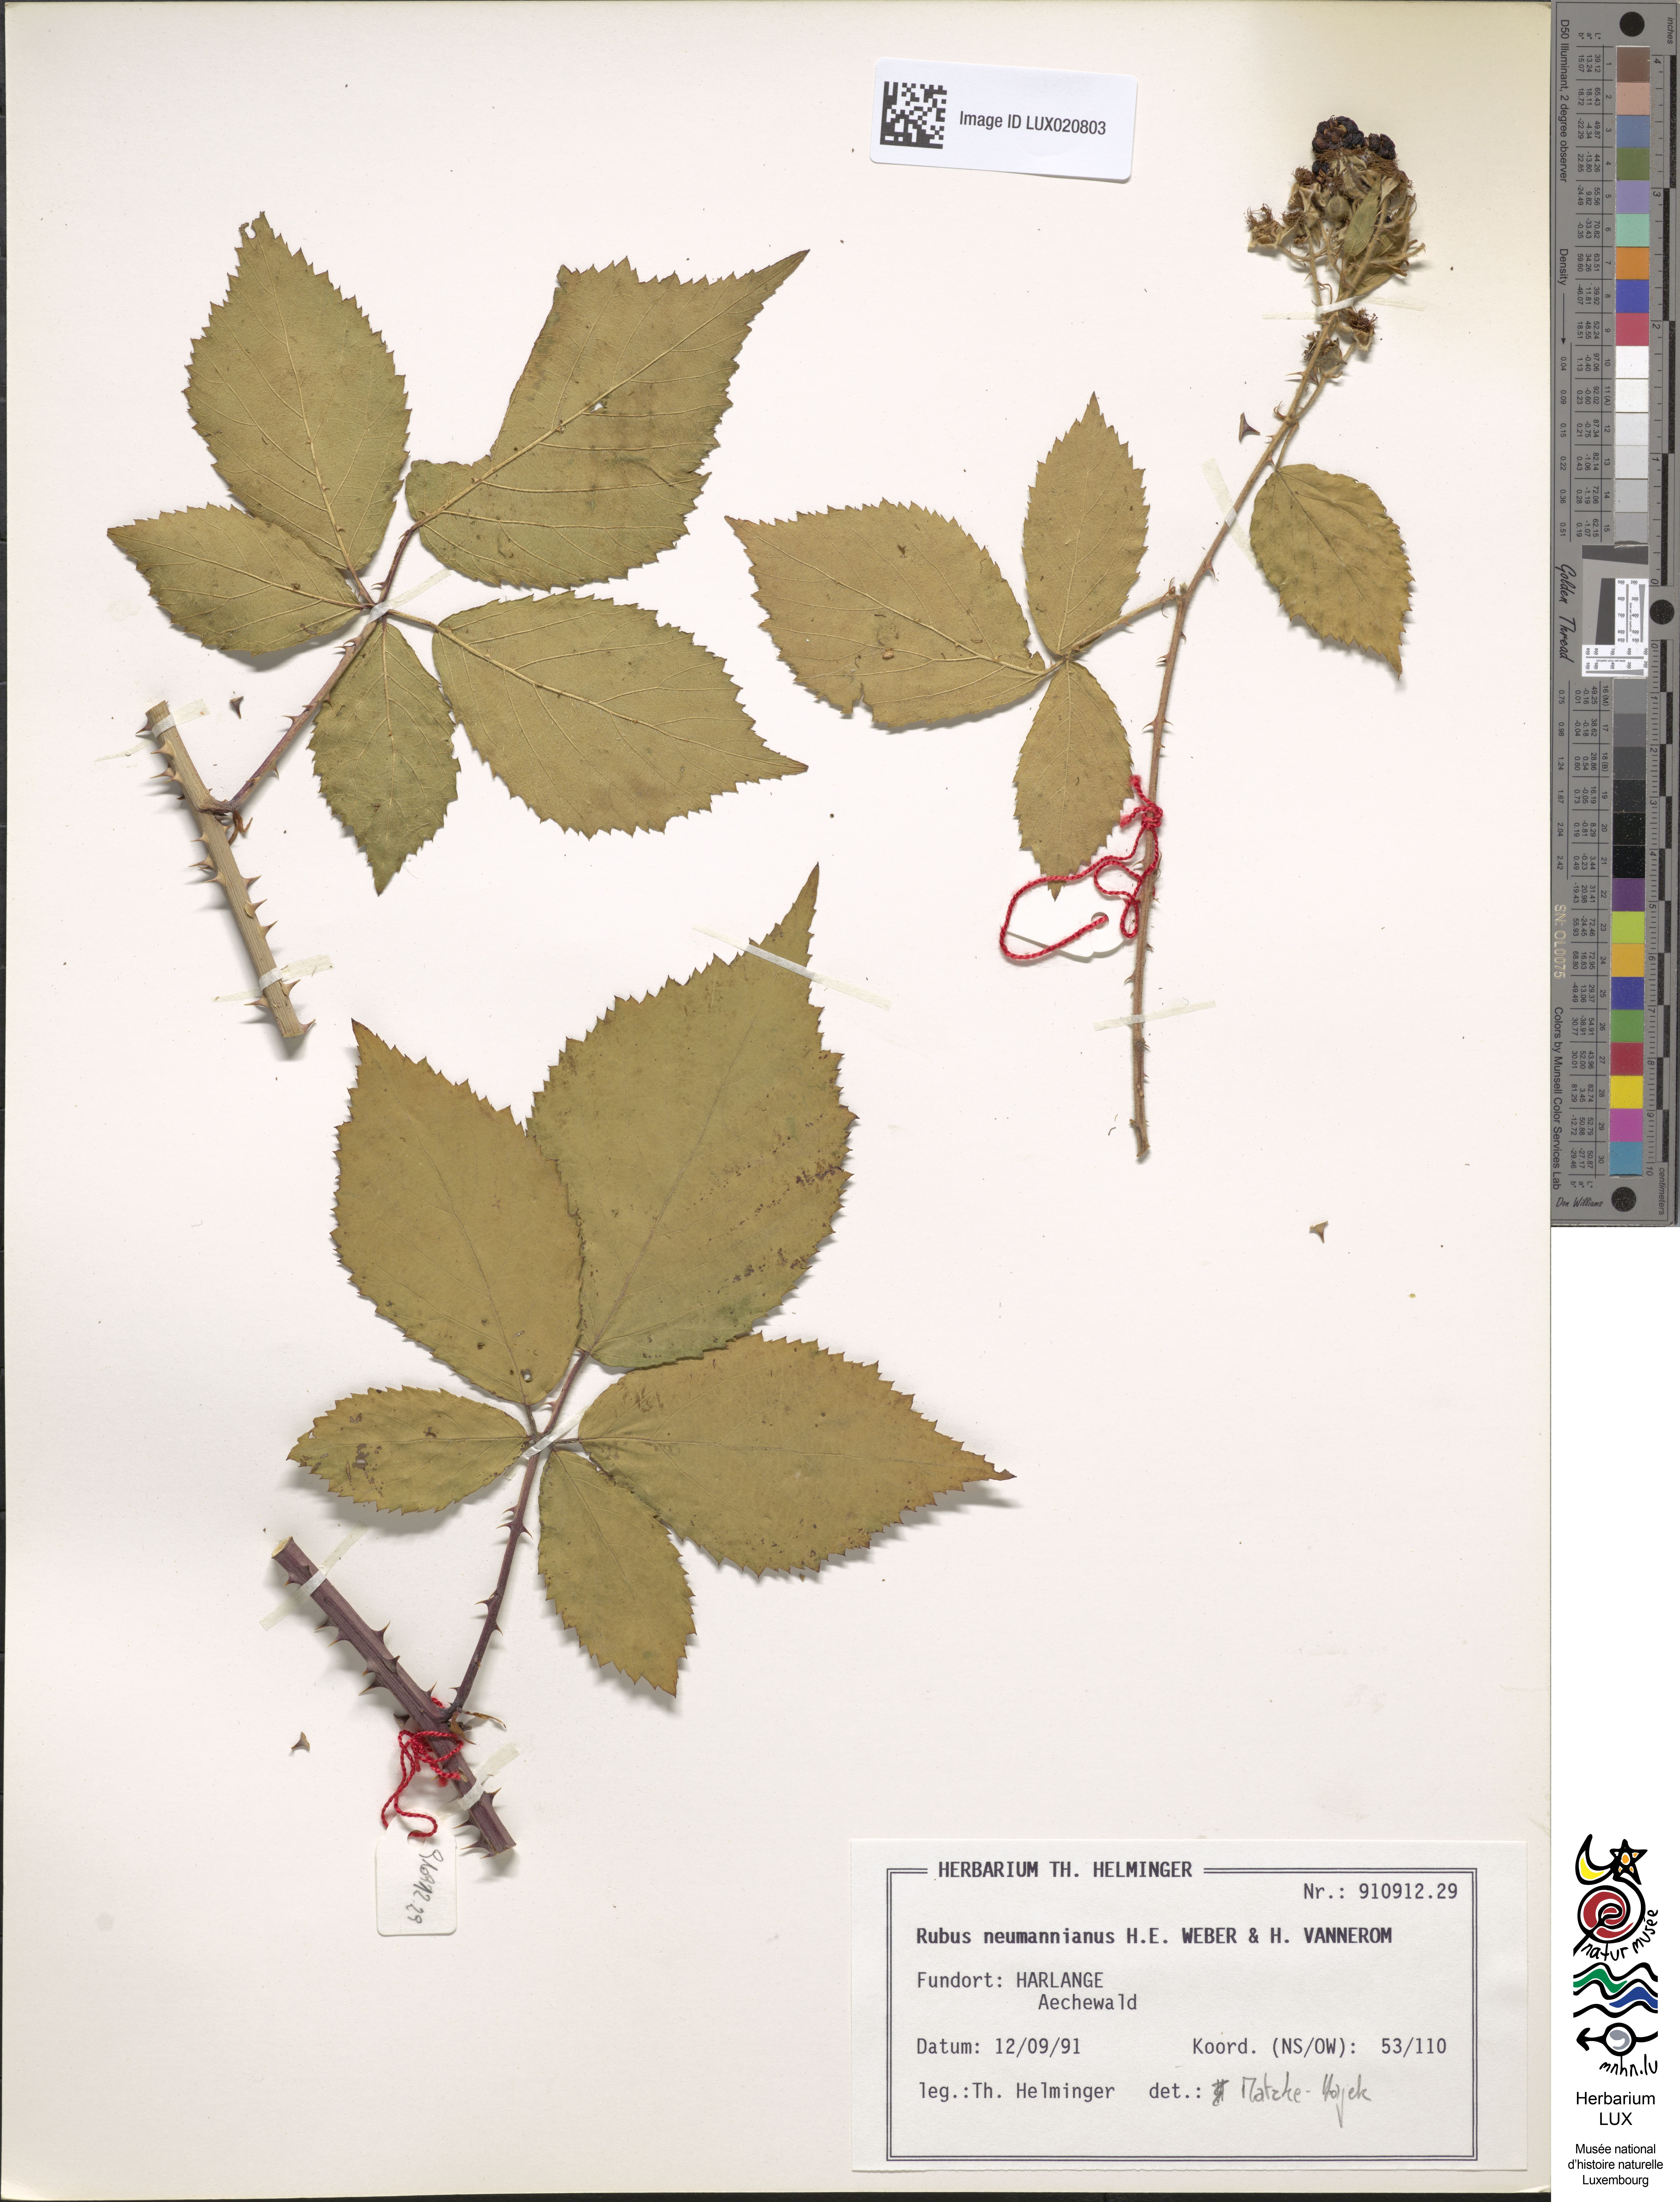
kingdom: Plantae
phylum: Tracheophyta
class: Magnoliopsida
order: Rosales
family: Rosaceae
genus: Rubus
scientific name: Rubus favonii
